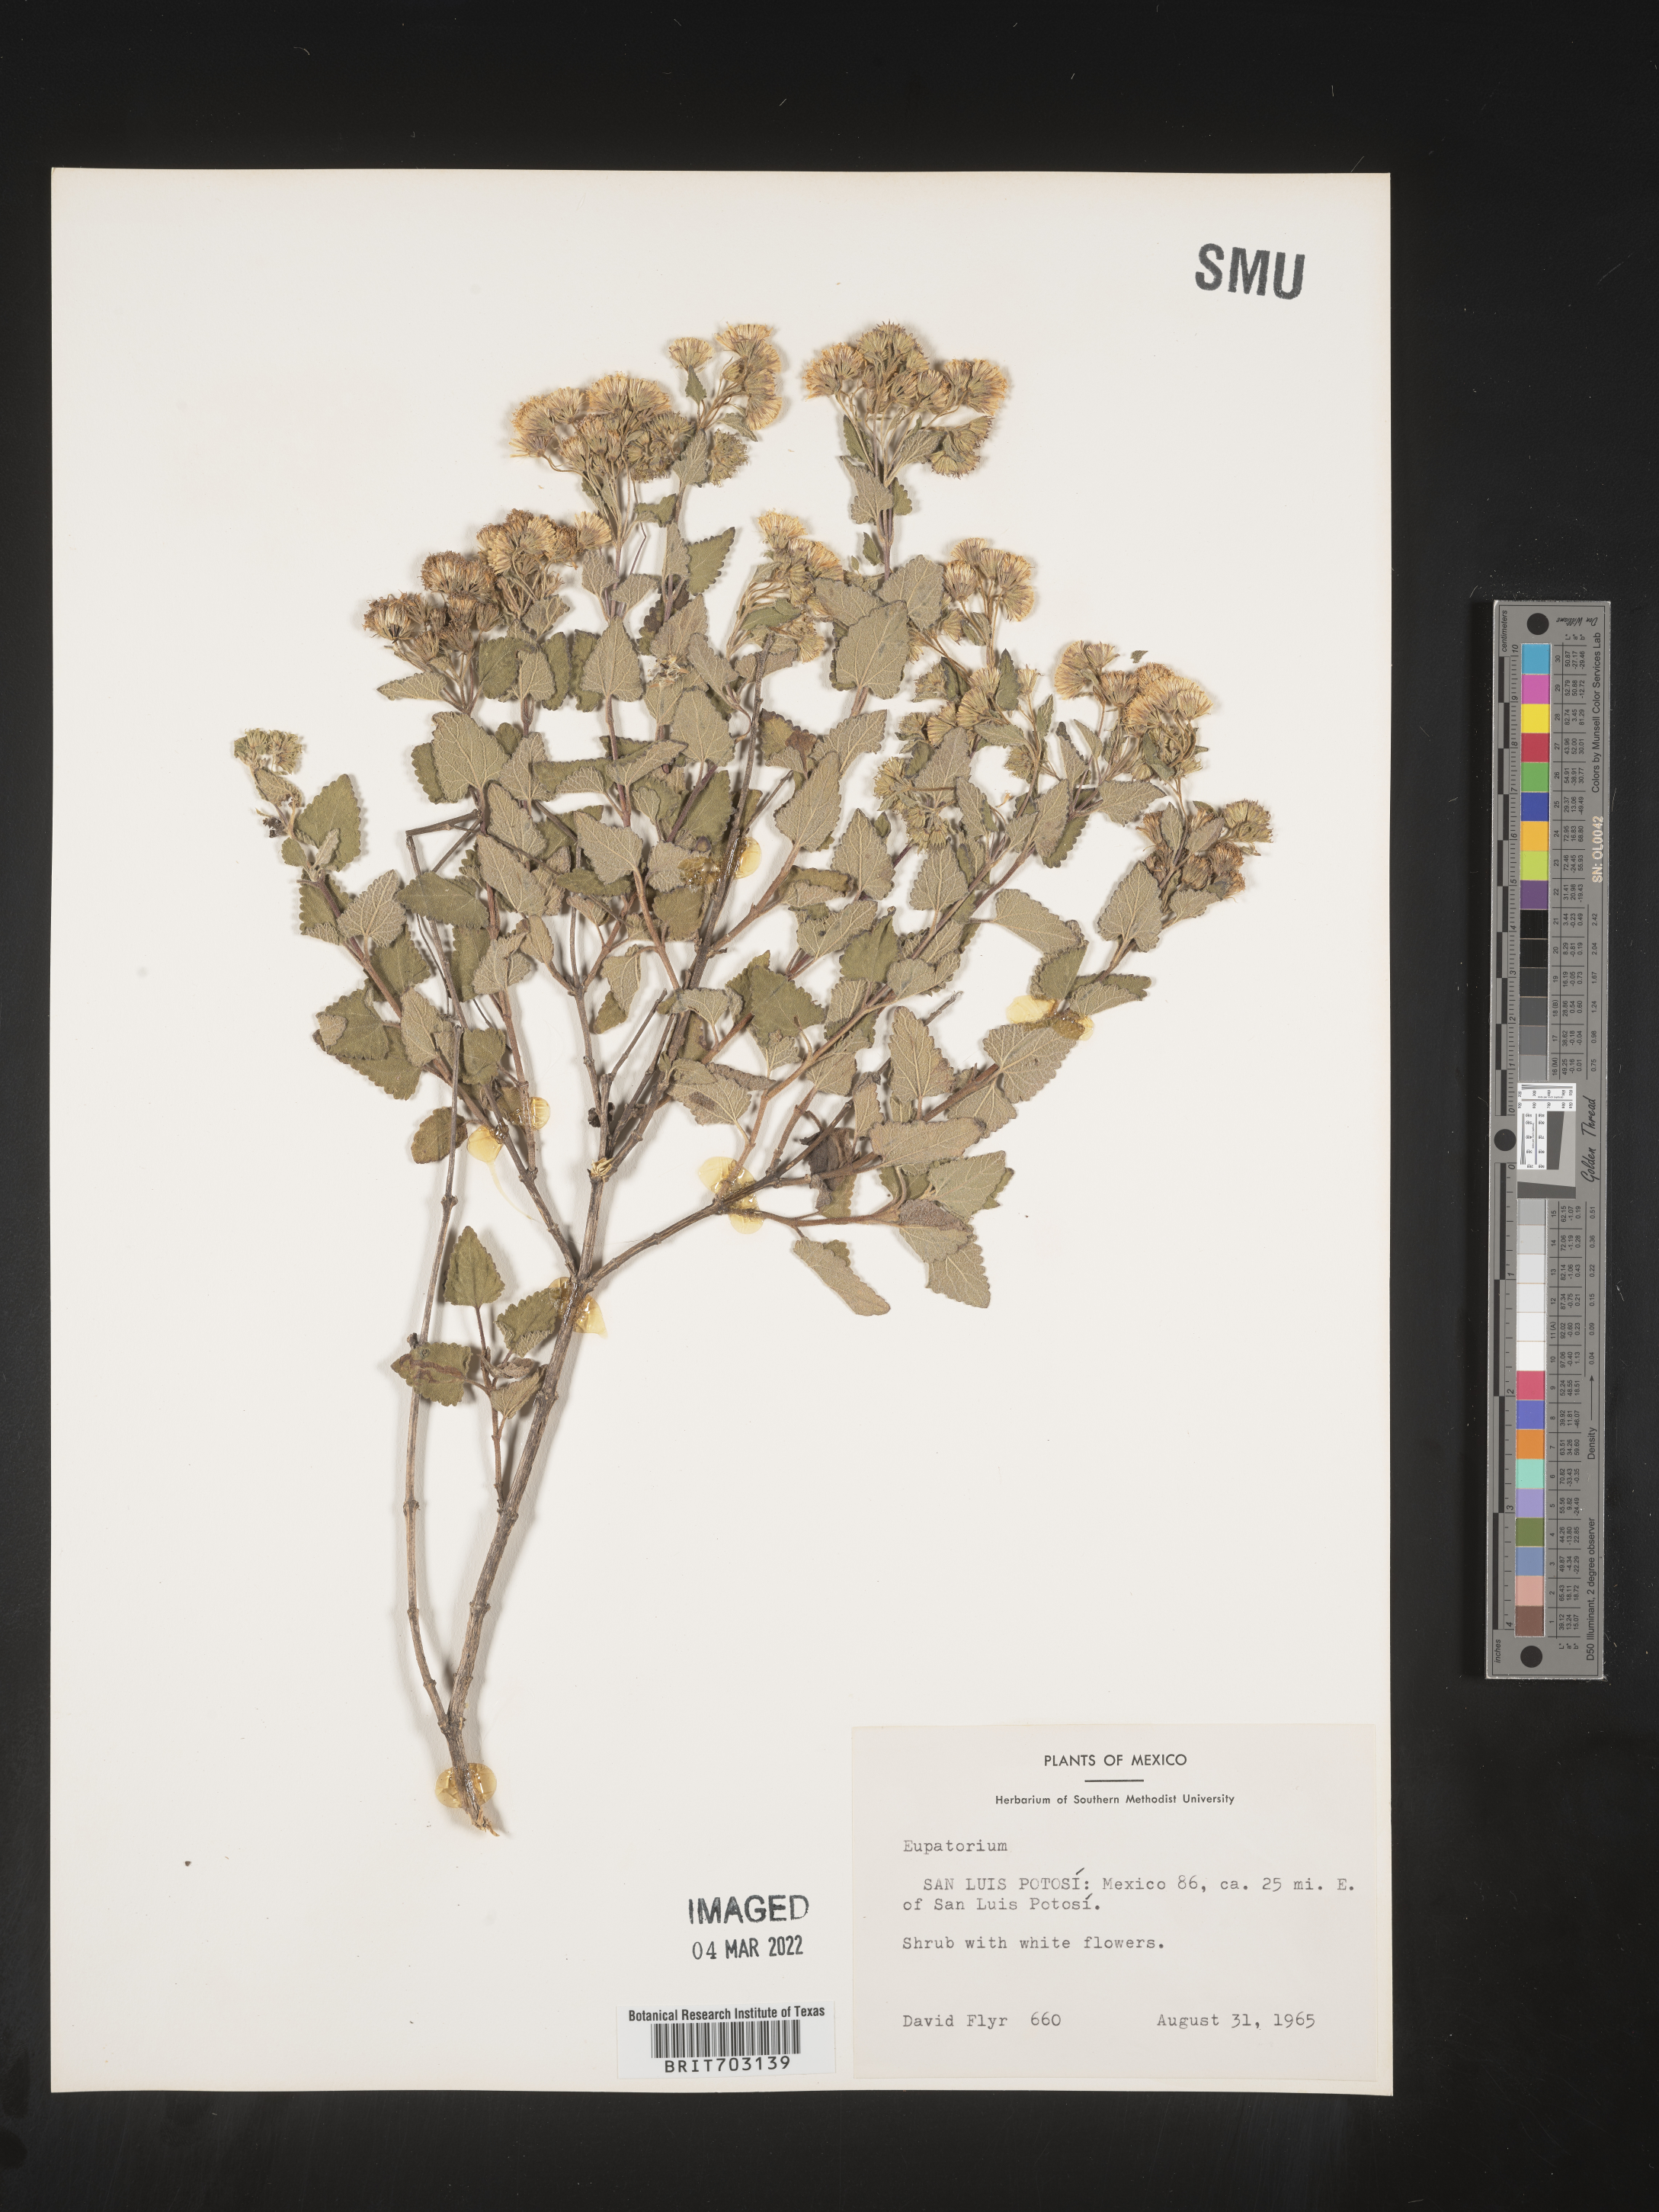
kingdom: Plantae
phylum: Tracheophyta
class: Magnoliopsida
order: Asterales
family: Asteraceae
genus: Eupatorium
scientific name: Eupatorium
